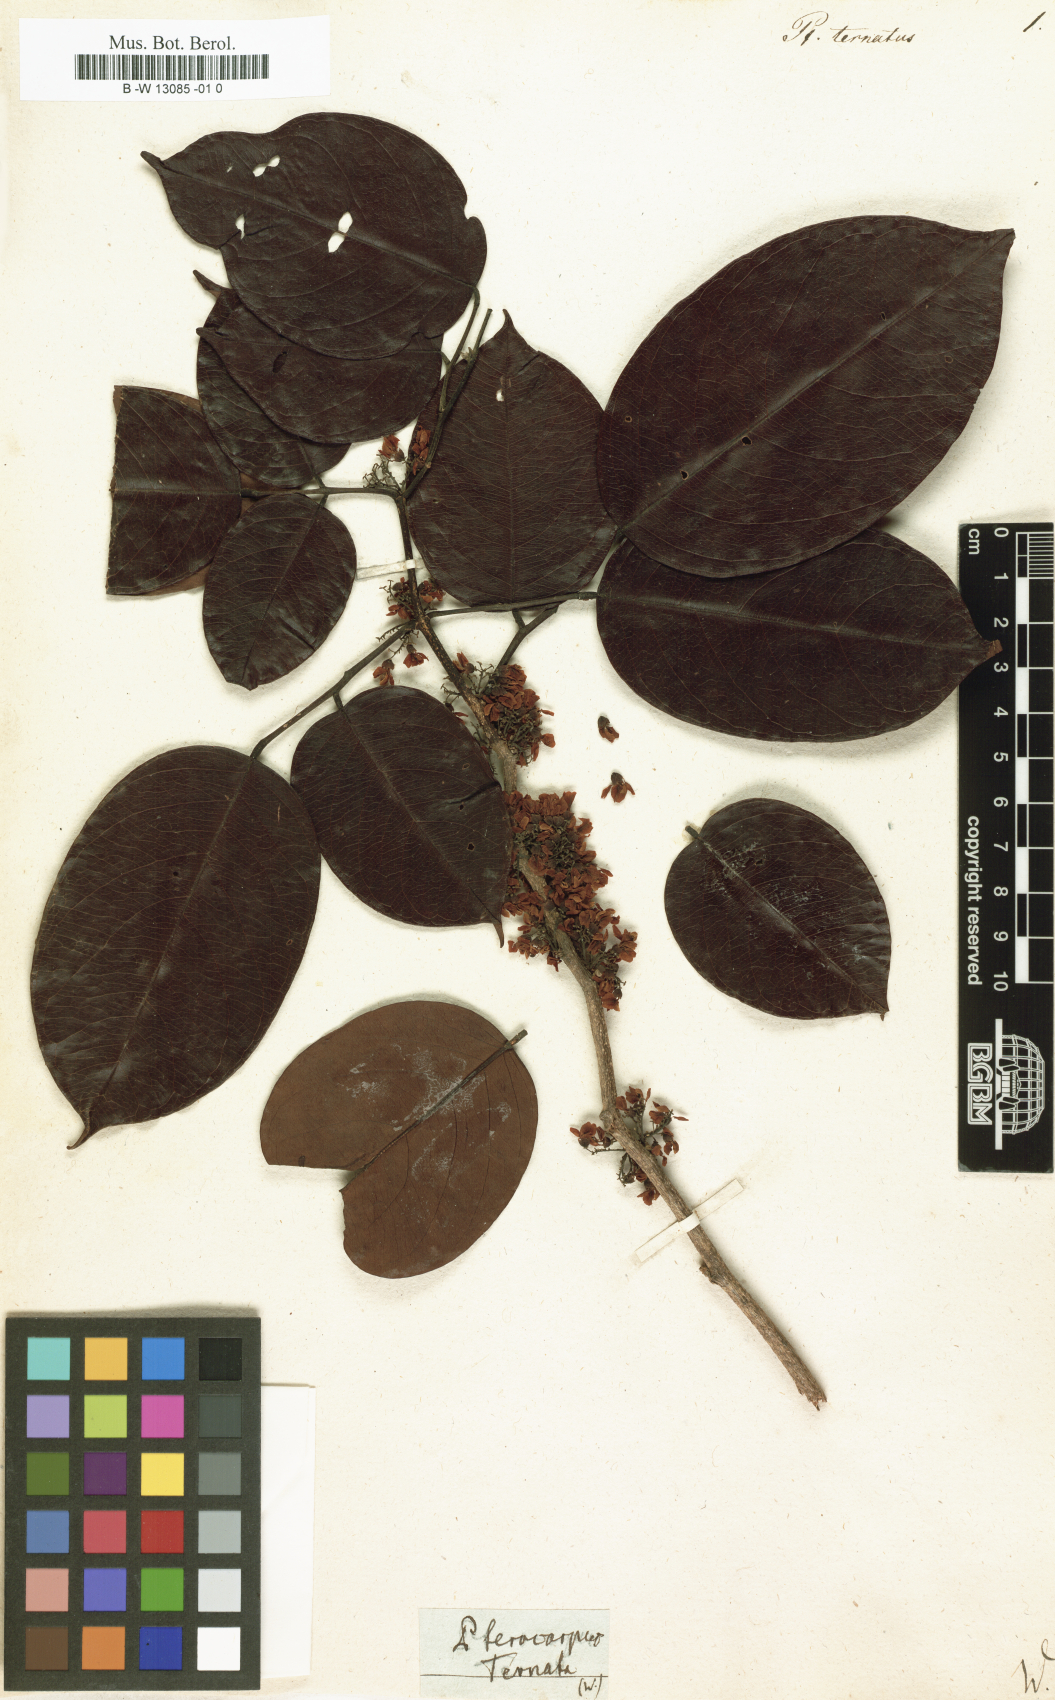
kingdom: Plantae
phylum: Tracheophyta
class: Magnoliopsida
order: Fabales
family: Fabaceae
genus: Dalbergia
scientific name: Dalbergia ovalis
